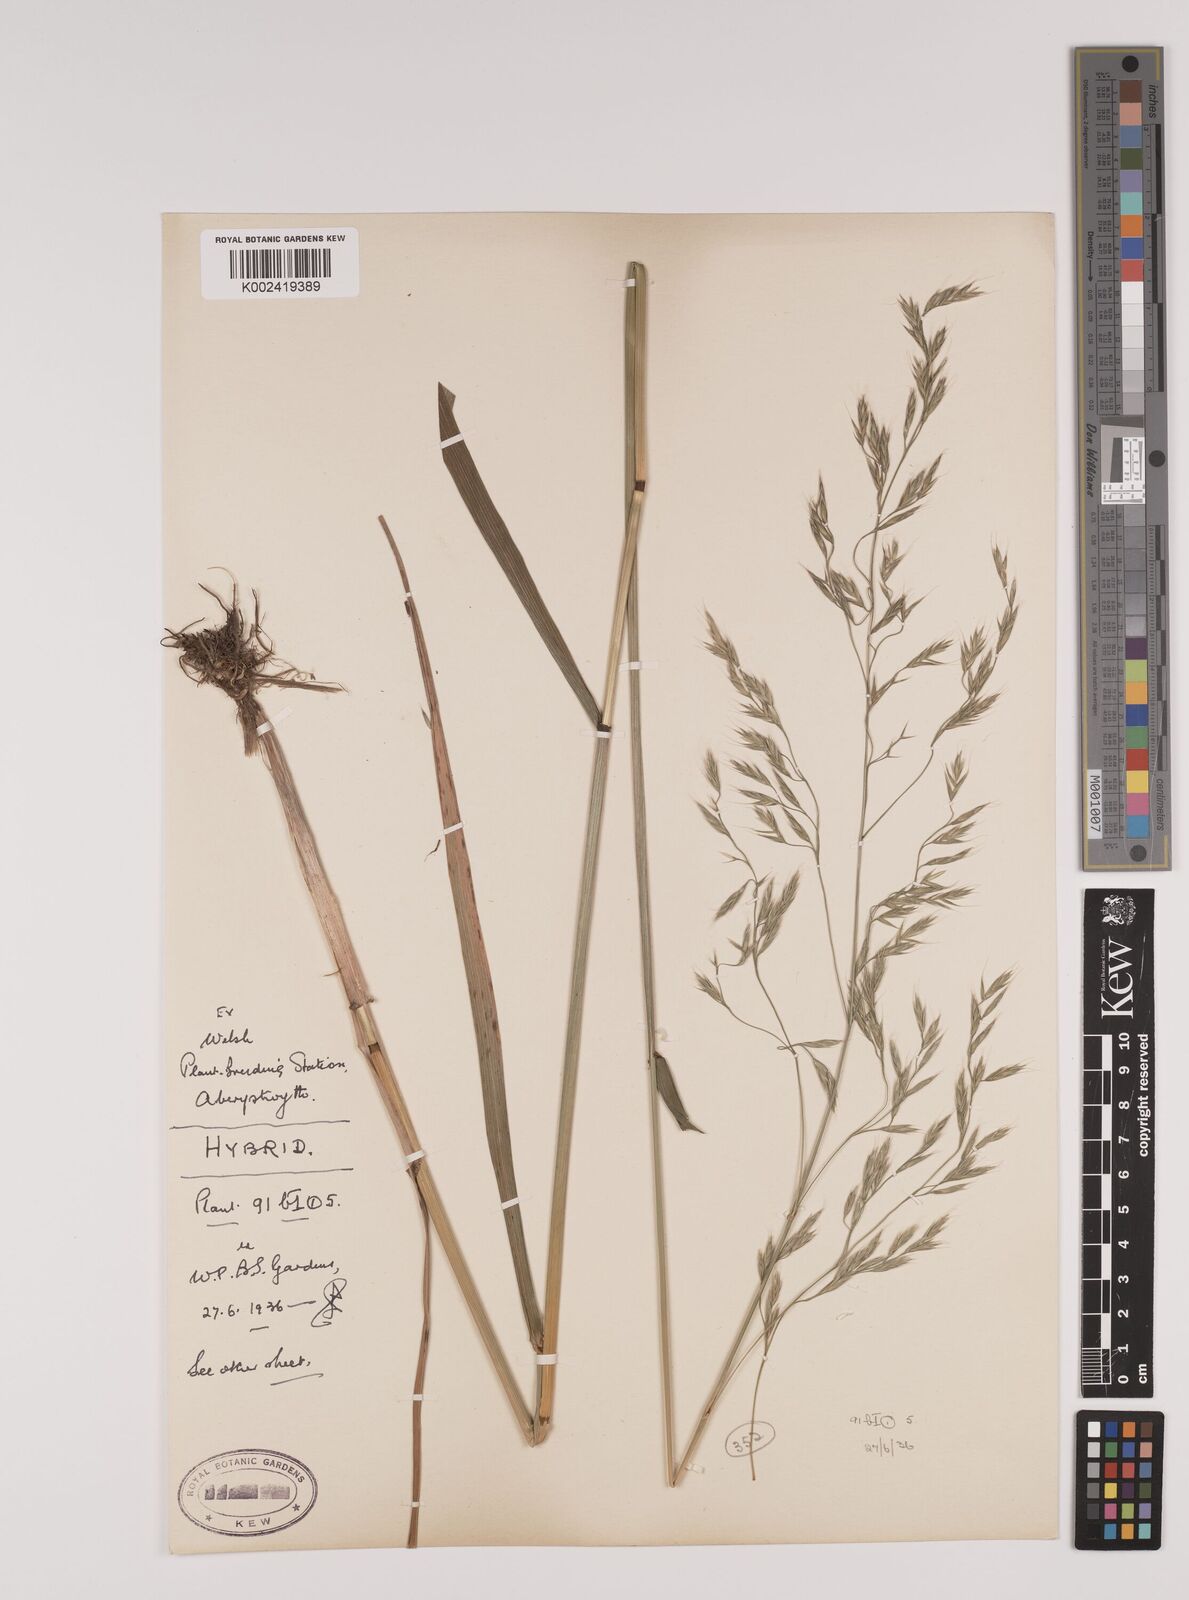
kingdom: Plantae
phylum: Tracheophyta
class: Liliopsida
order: Poales
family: Poaceae
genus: Lolium
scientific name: Lolium giganteum
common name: Giant fescue
